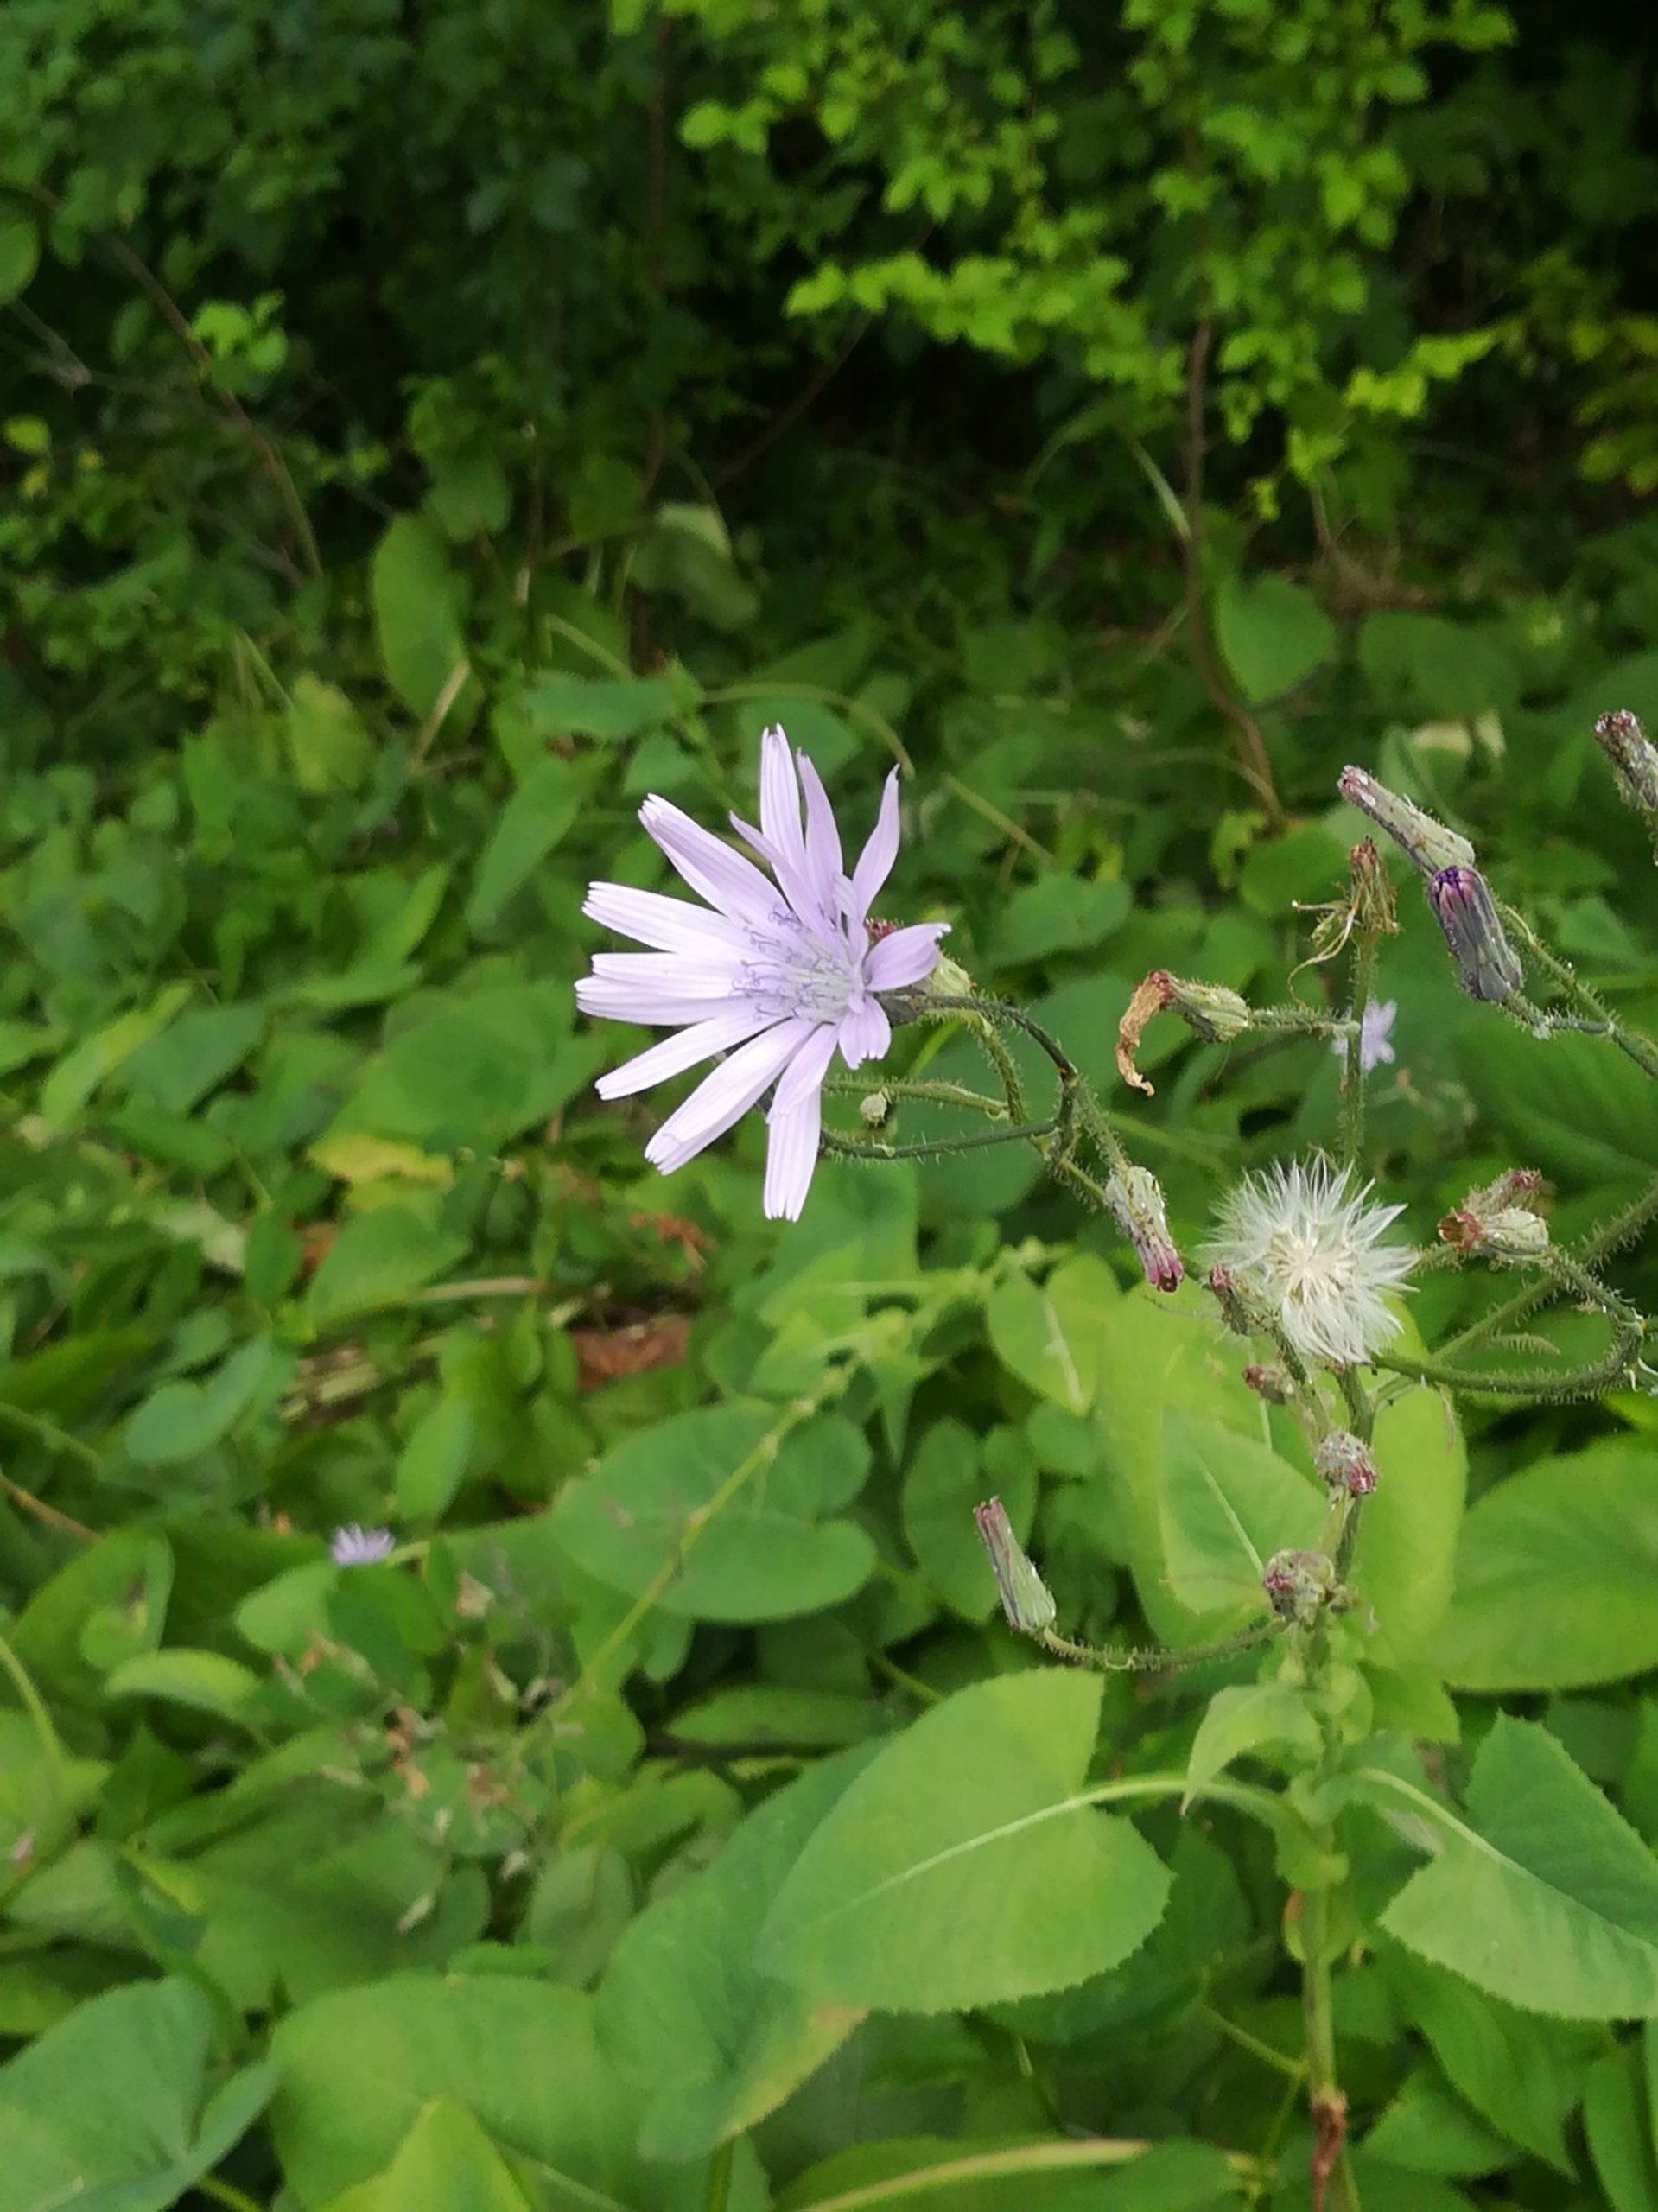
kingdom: Plantae
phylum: Tracheophyta
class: Magnoliopsida
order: Asterales
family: Asteraceae
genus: Lactuca
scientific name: Lactuca macrophylla
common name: Kæmpe-salat
